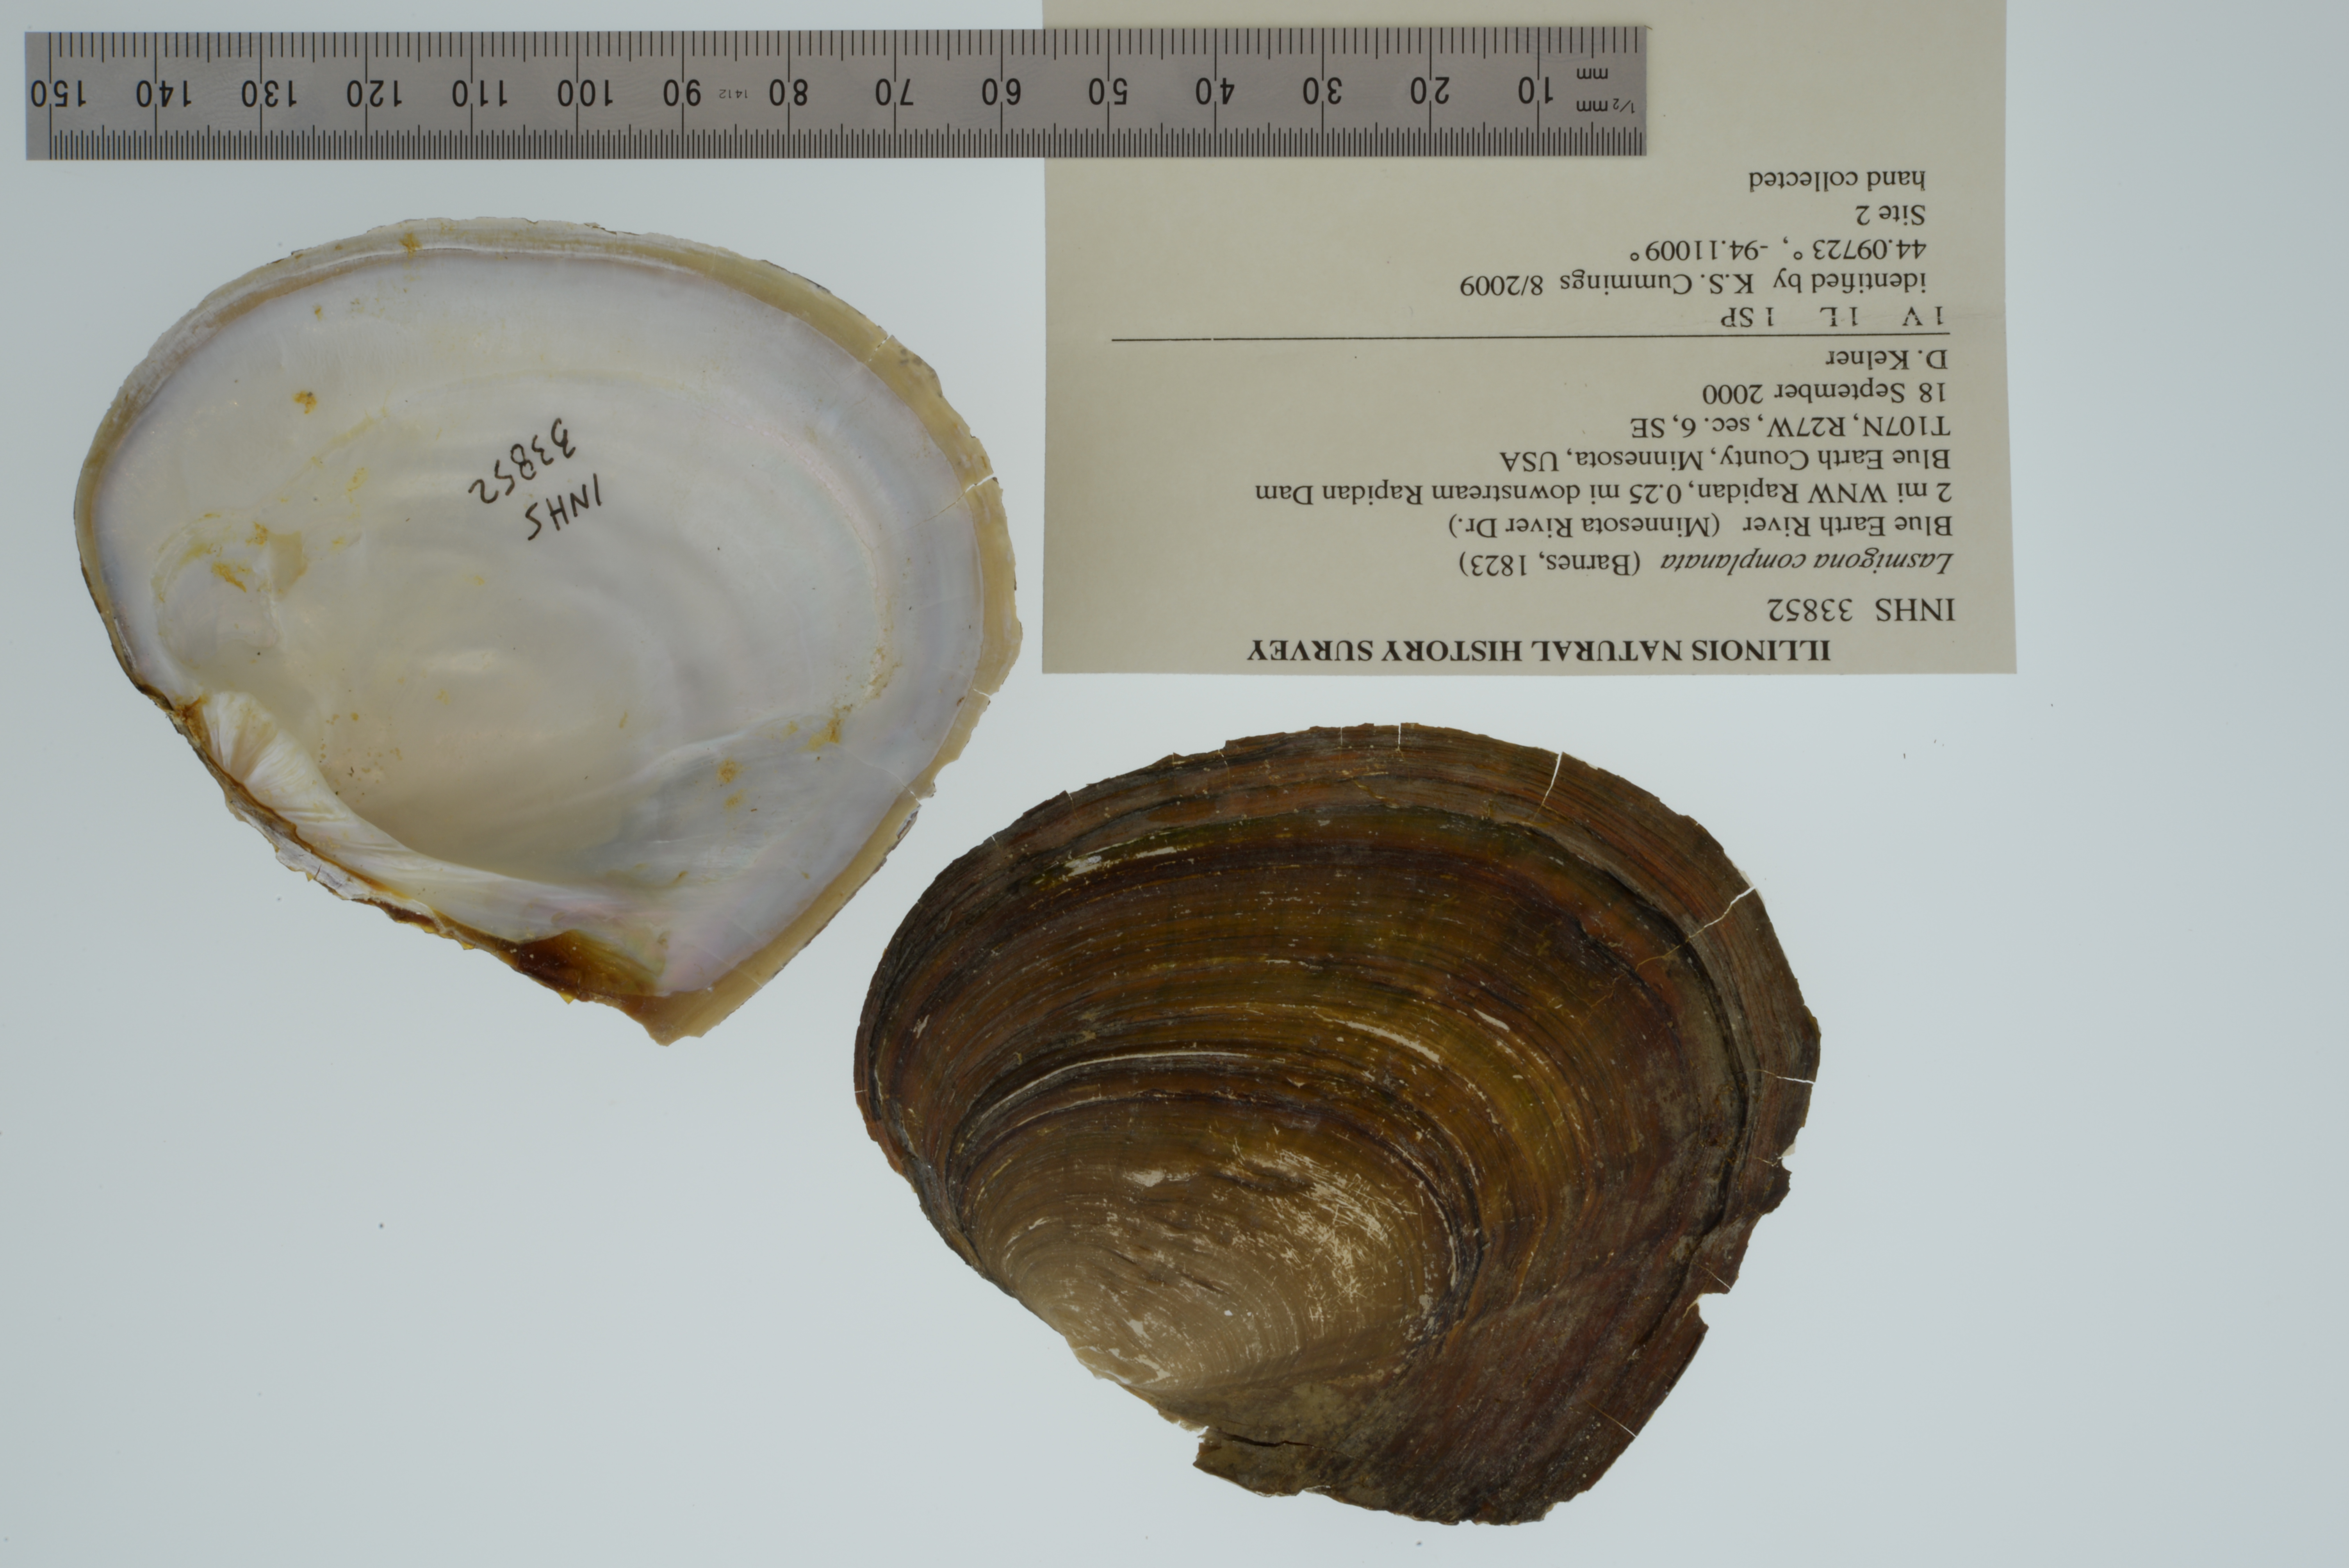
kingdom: Animalia
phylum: Mollusca
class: Bivalvia
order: Unionida
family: Unionidae
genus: Lasmigona
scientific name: Lasmigona complanata
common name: White heelsplitter
